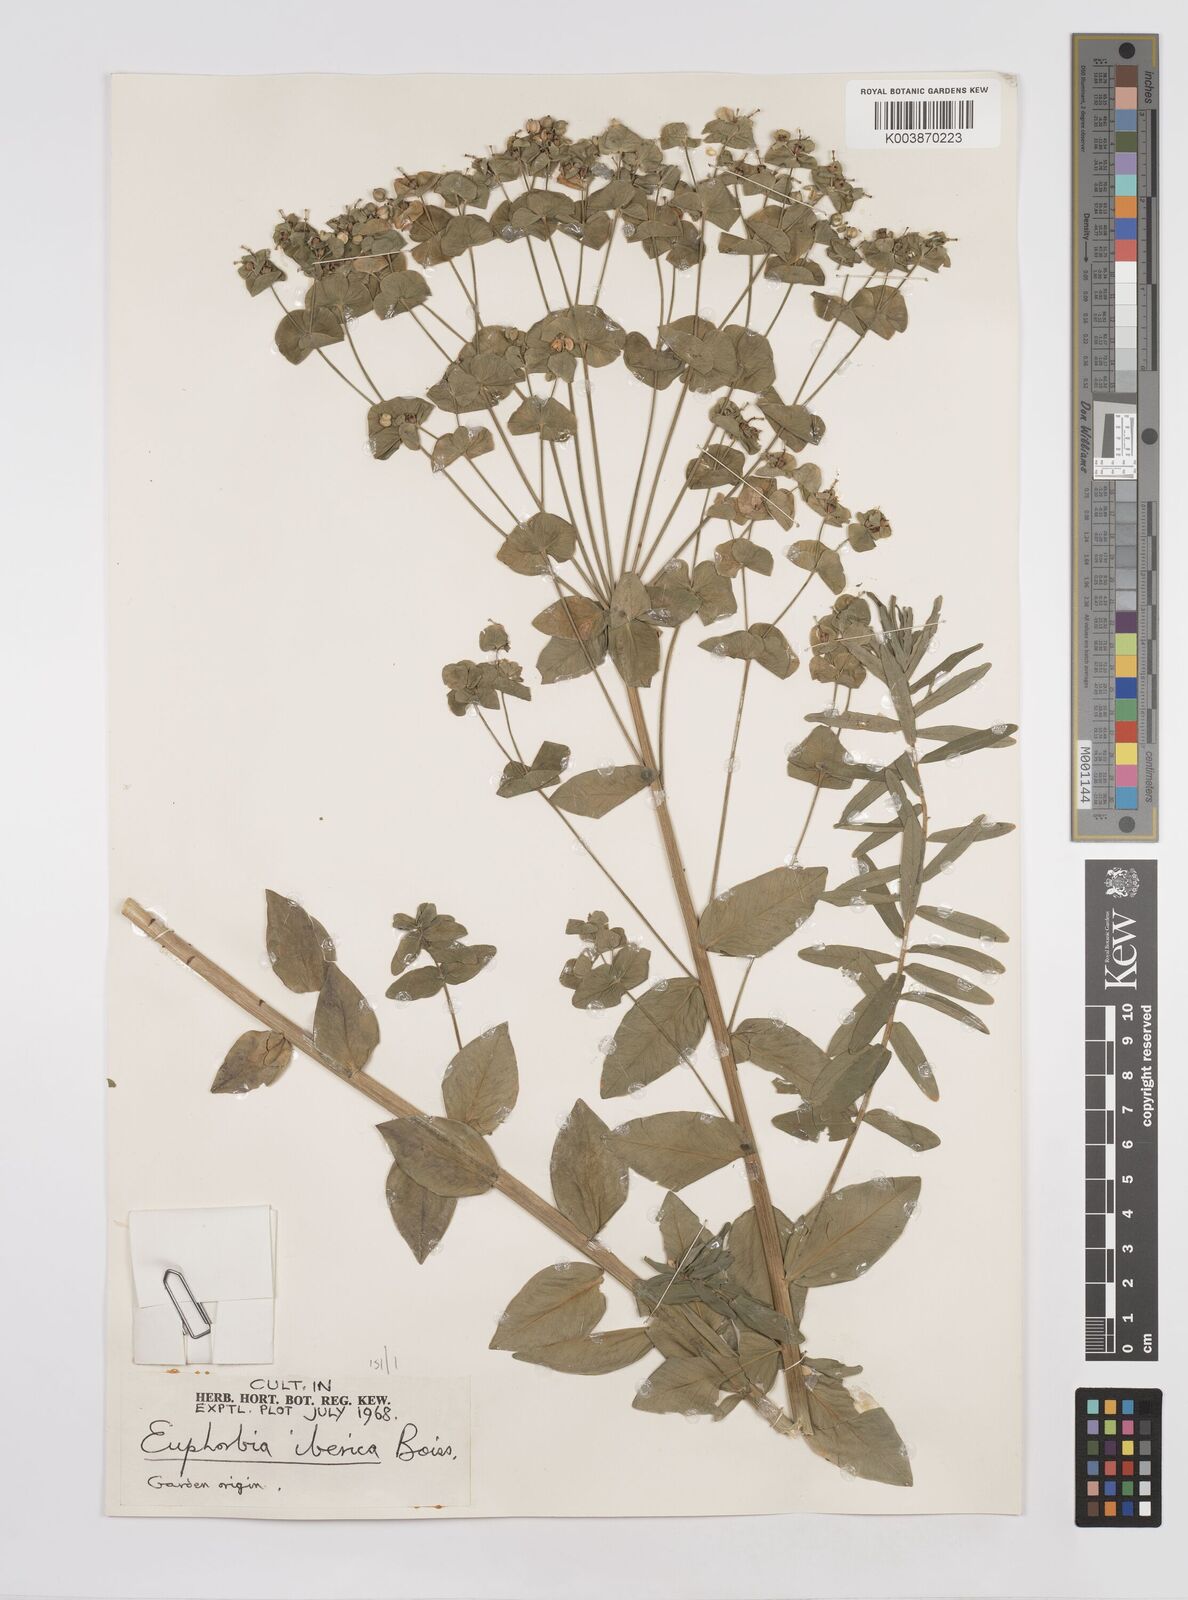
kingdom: Plantae
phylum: Tracheophyta
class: Magnoliopsida
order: Malpighiales
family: Euphorbiaceae
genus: Euphorbia
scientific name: Euphorbia iberica
